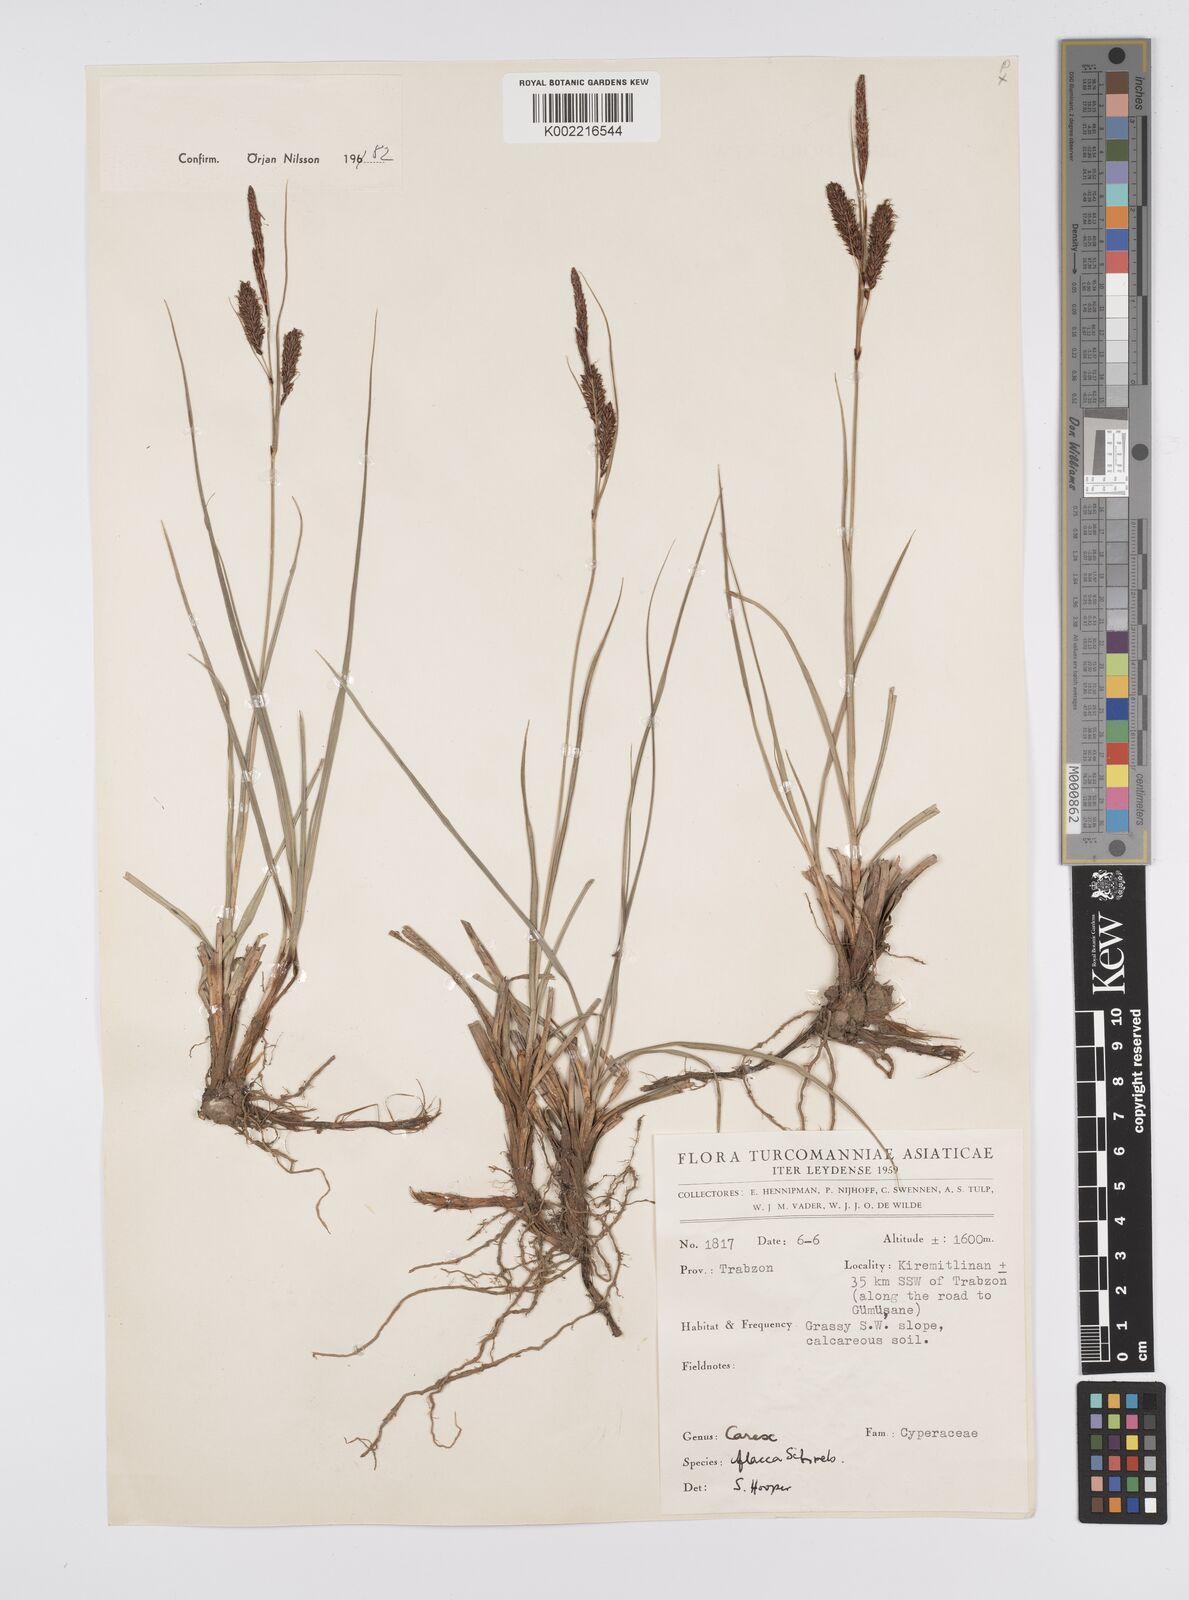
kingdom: Plantae
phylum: Tracheophyta
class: Liliopsida
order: Poales
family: Cyperaceae
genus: Carex
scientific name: Carex flacca
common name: Glaucous sedge
